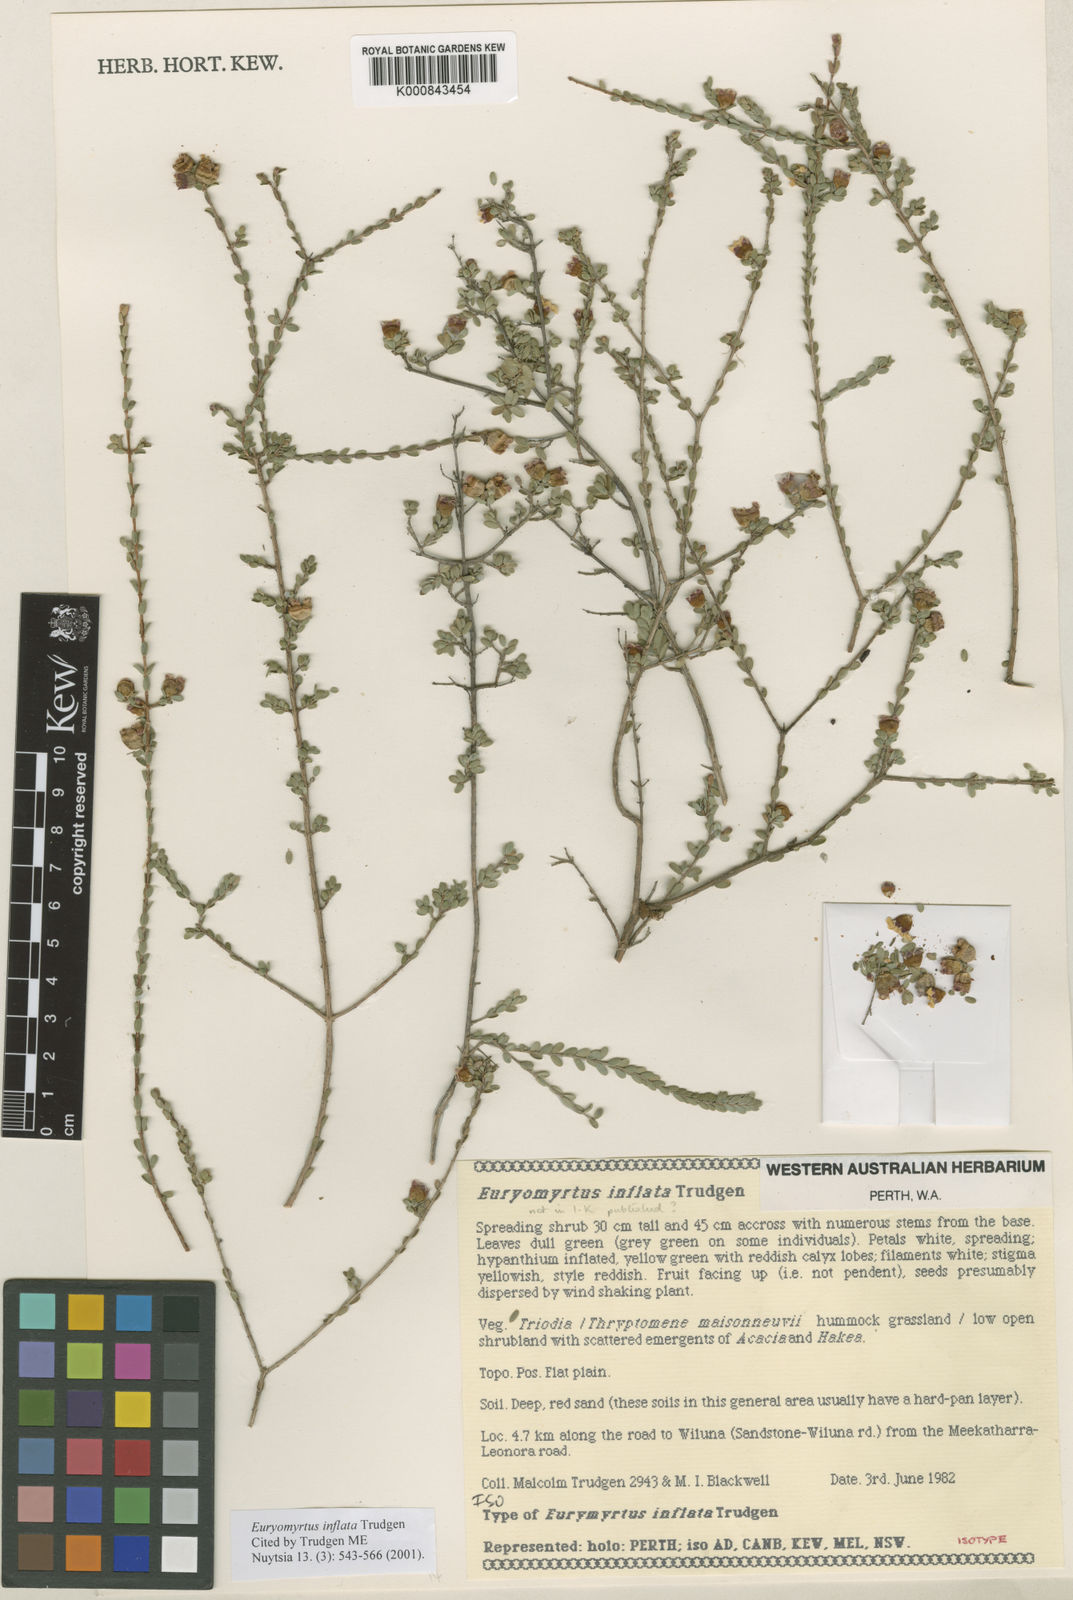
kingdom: Plantae
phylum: Tracheophyta
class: Magnoliopsida
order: Myrtales
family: Myrtaceae
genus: Euryomyrtus
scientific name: Euryomyrtus inflata
